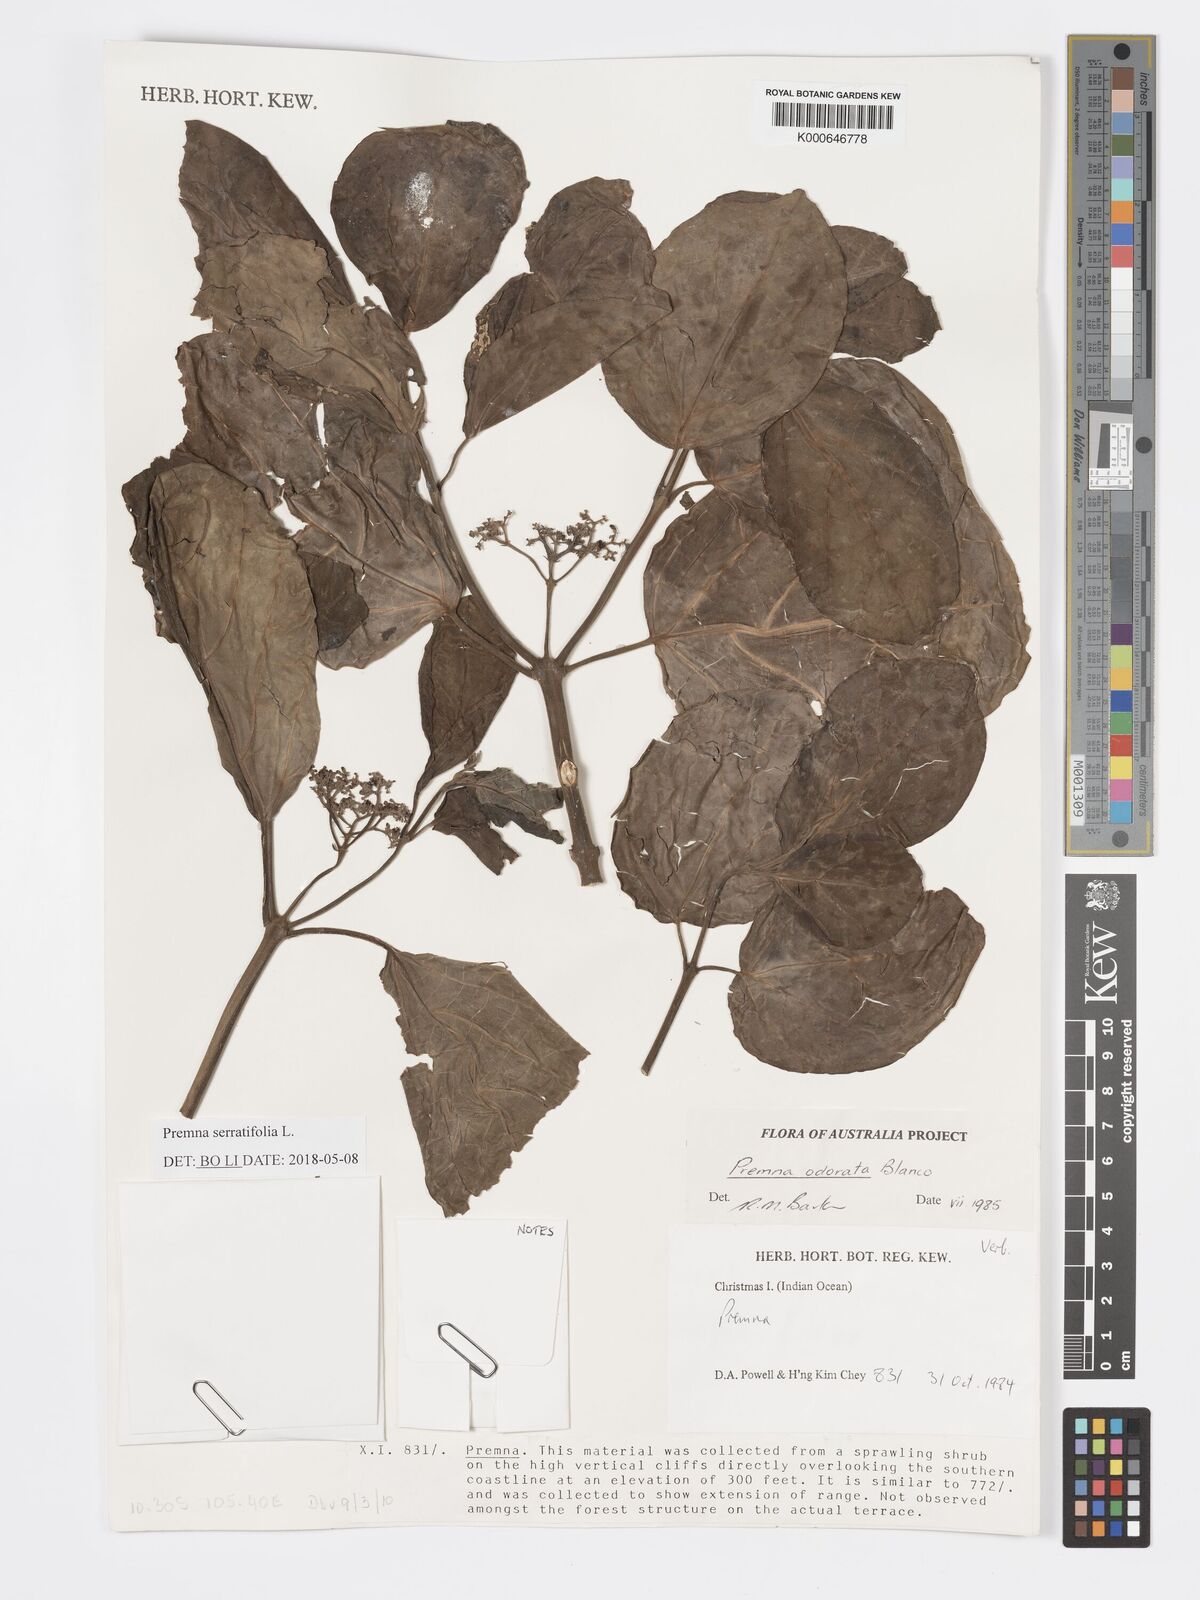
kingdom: Plantae
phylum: Tracheophyta
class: Magnoliopsida
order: Lamiales
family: Lamiaceae
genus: Premna
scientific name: Premna odorata
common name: Fragrant premna
